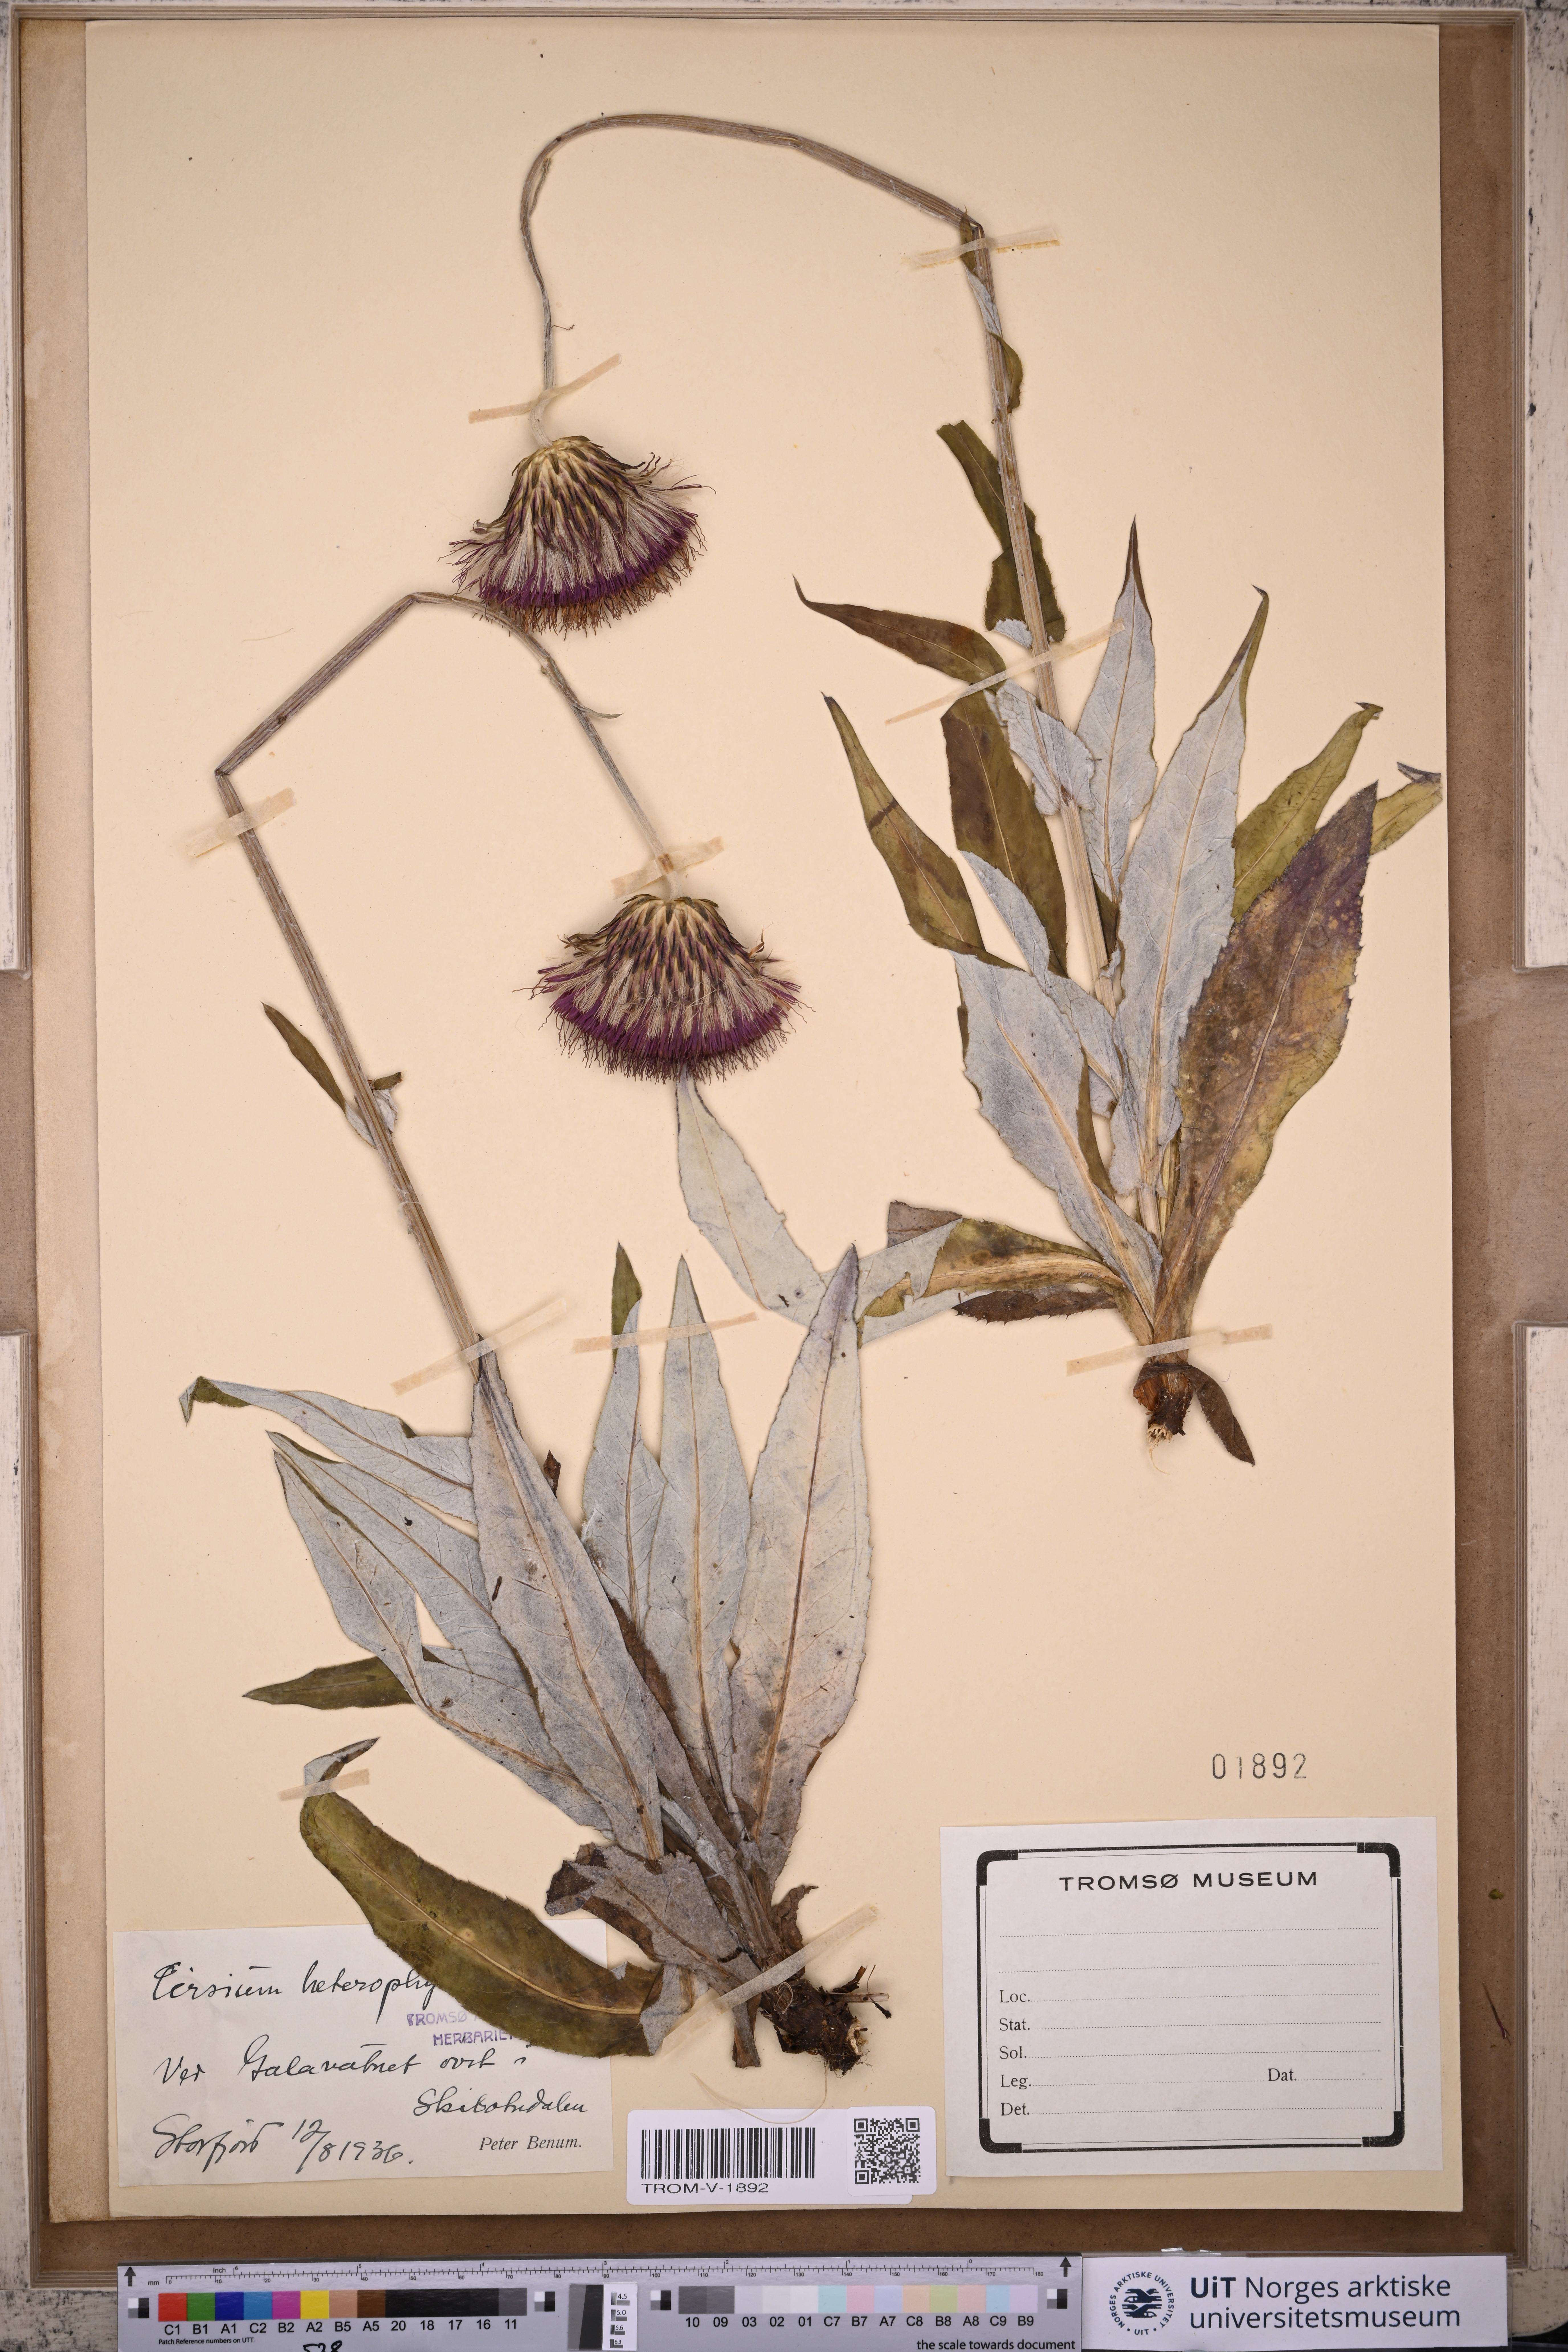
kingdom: Plantae
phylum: Tracheophyta
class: Magnoliopsida
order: Asterales
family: Asteraceae
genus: Cirsium
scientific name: Cirsium heterophyllum
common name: Melancholy thistle
